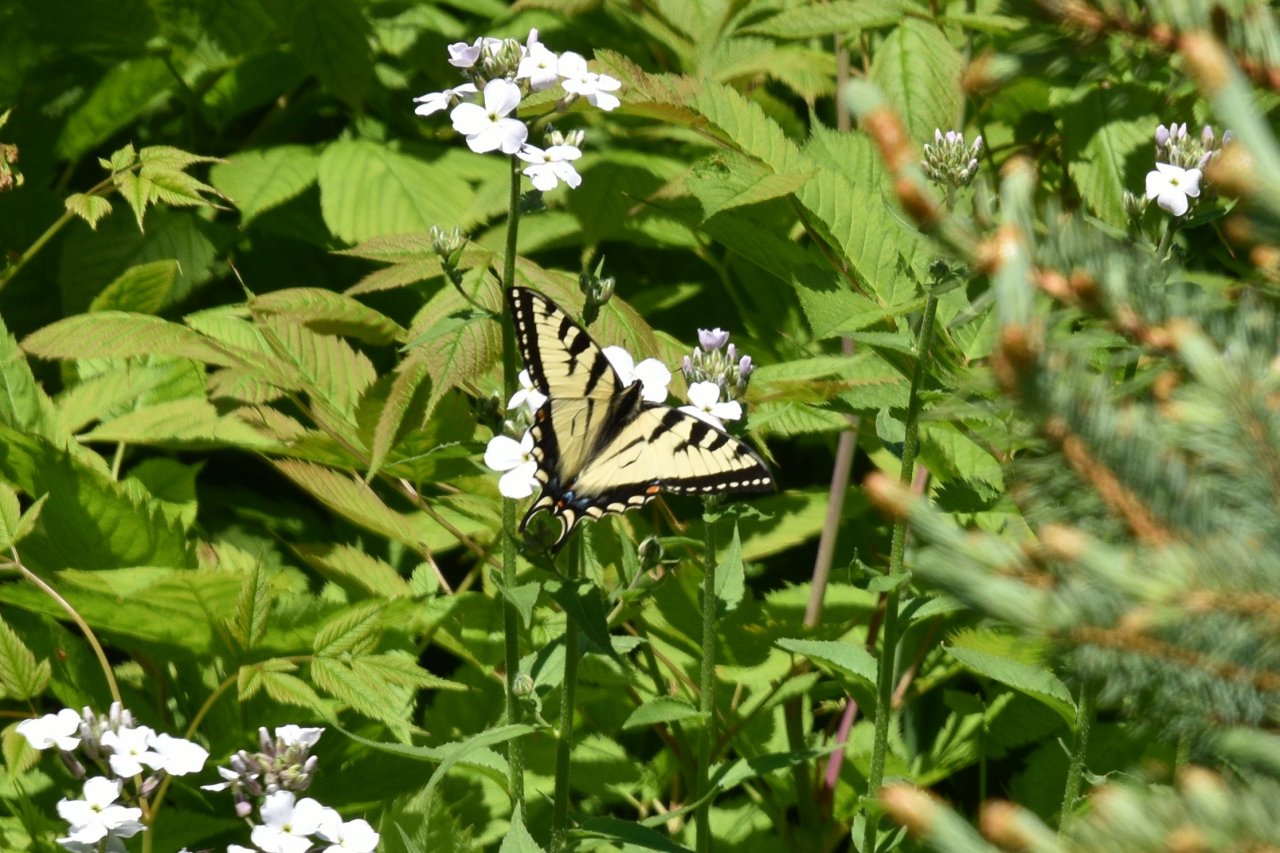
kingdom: Animalia
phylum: Arthropoda
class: Insecta
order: Lepidoptera
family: Papilionidae
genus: Pterourus
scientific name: Pterourus canadensis
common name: Canadian Tiger Swallowtail
